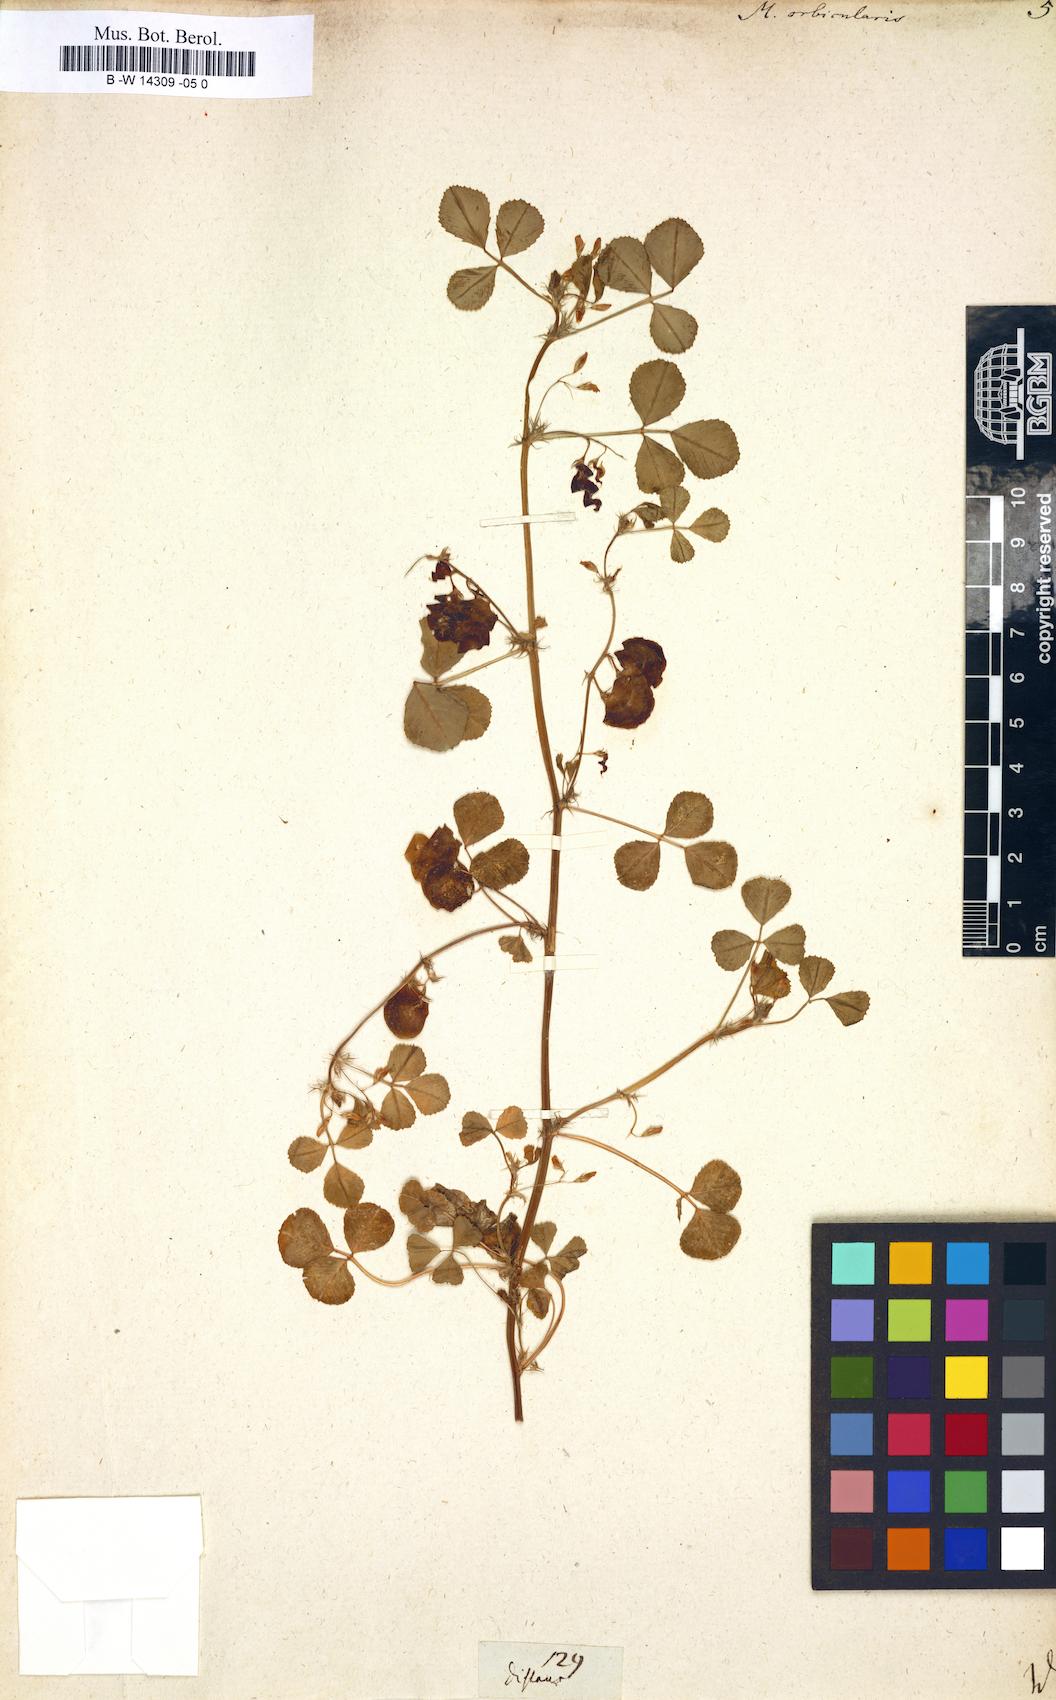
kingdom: Plantae
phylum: Tracheophyta
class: Magnoliopsida
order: Fabales
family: Fabaceae
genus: Medicago
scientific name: Medicago orbicularis
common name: Button medick
